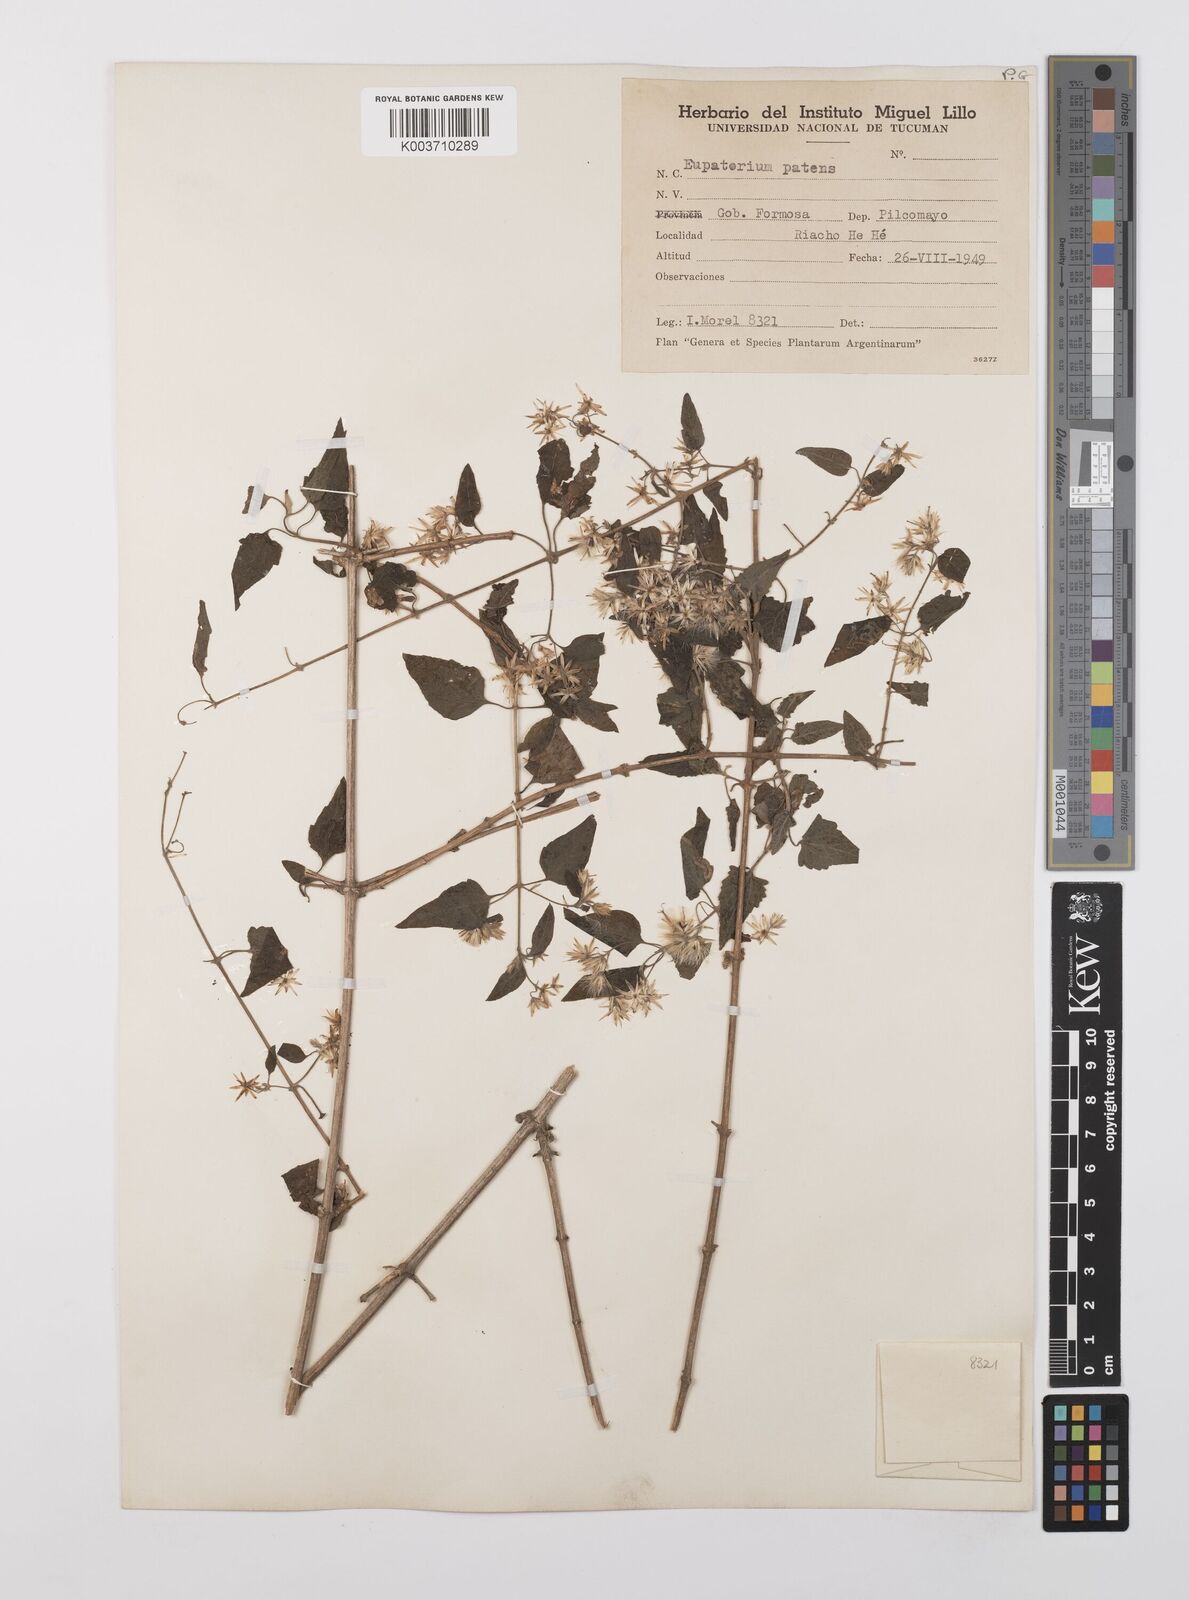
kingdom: Plantae
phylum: Tracheophyta
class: Magnoliopsida
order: Asterales
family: Asteraceae
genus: Austrobrickellia
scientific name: Austrobrickellia patens
